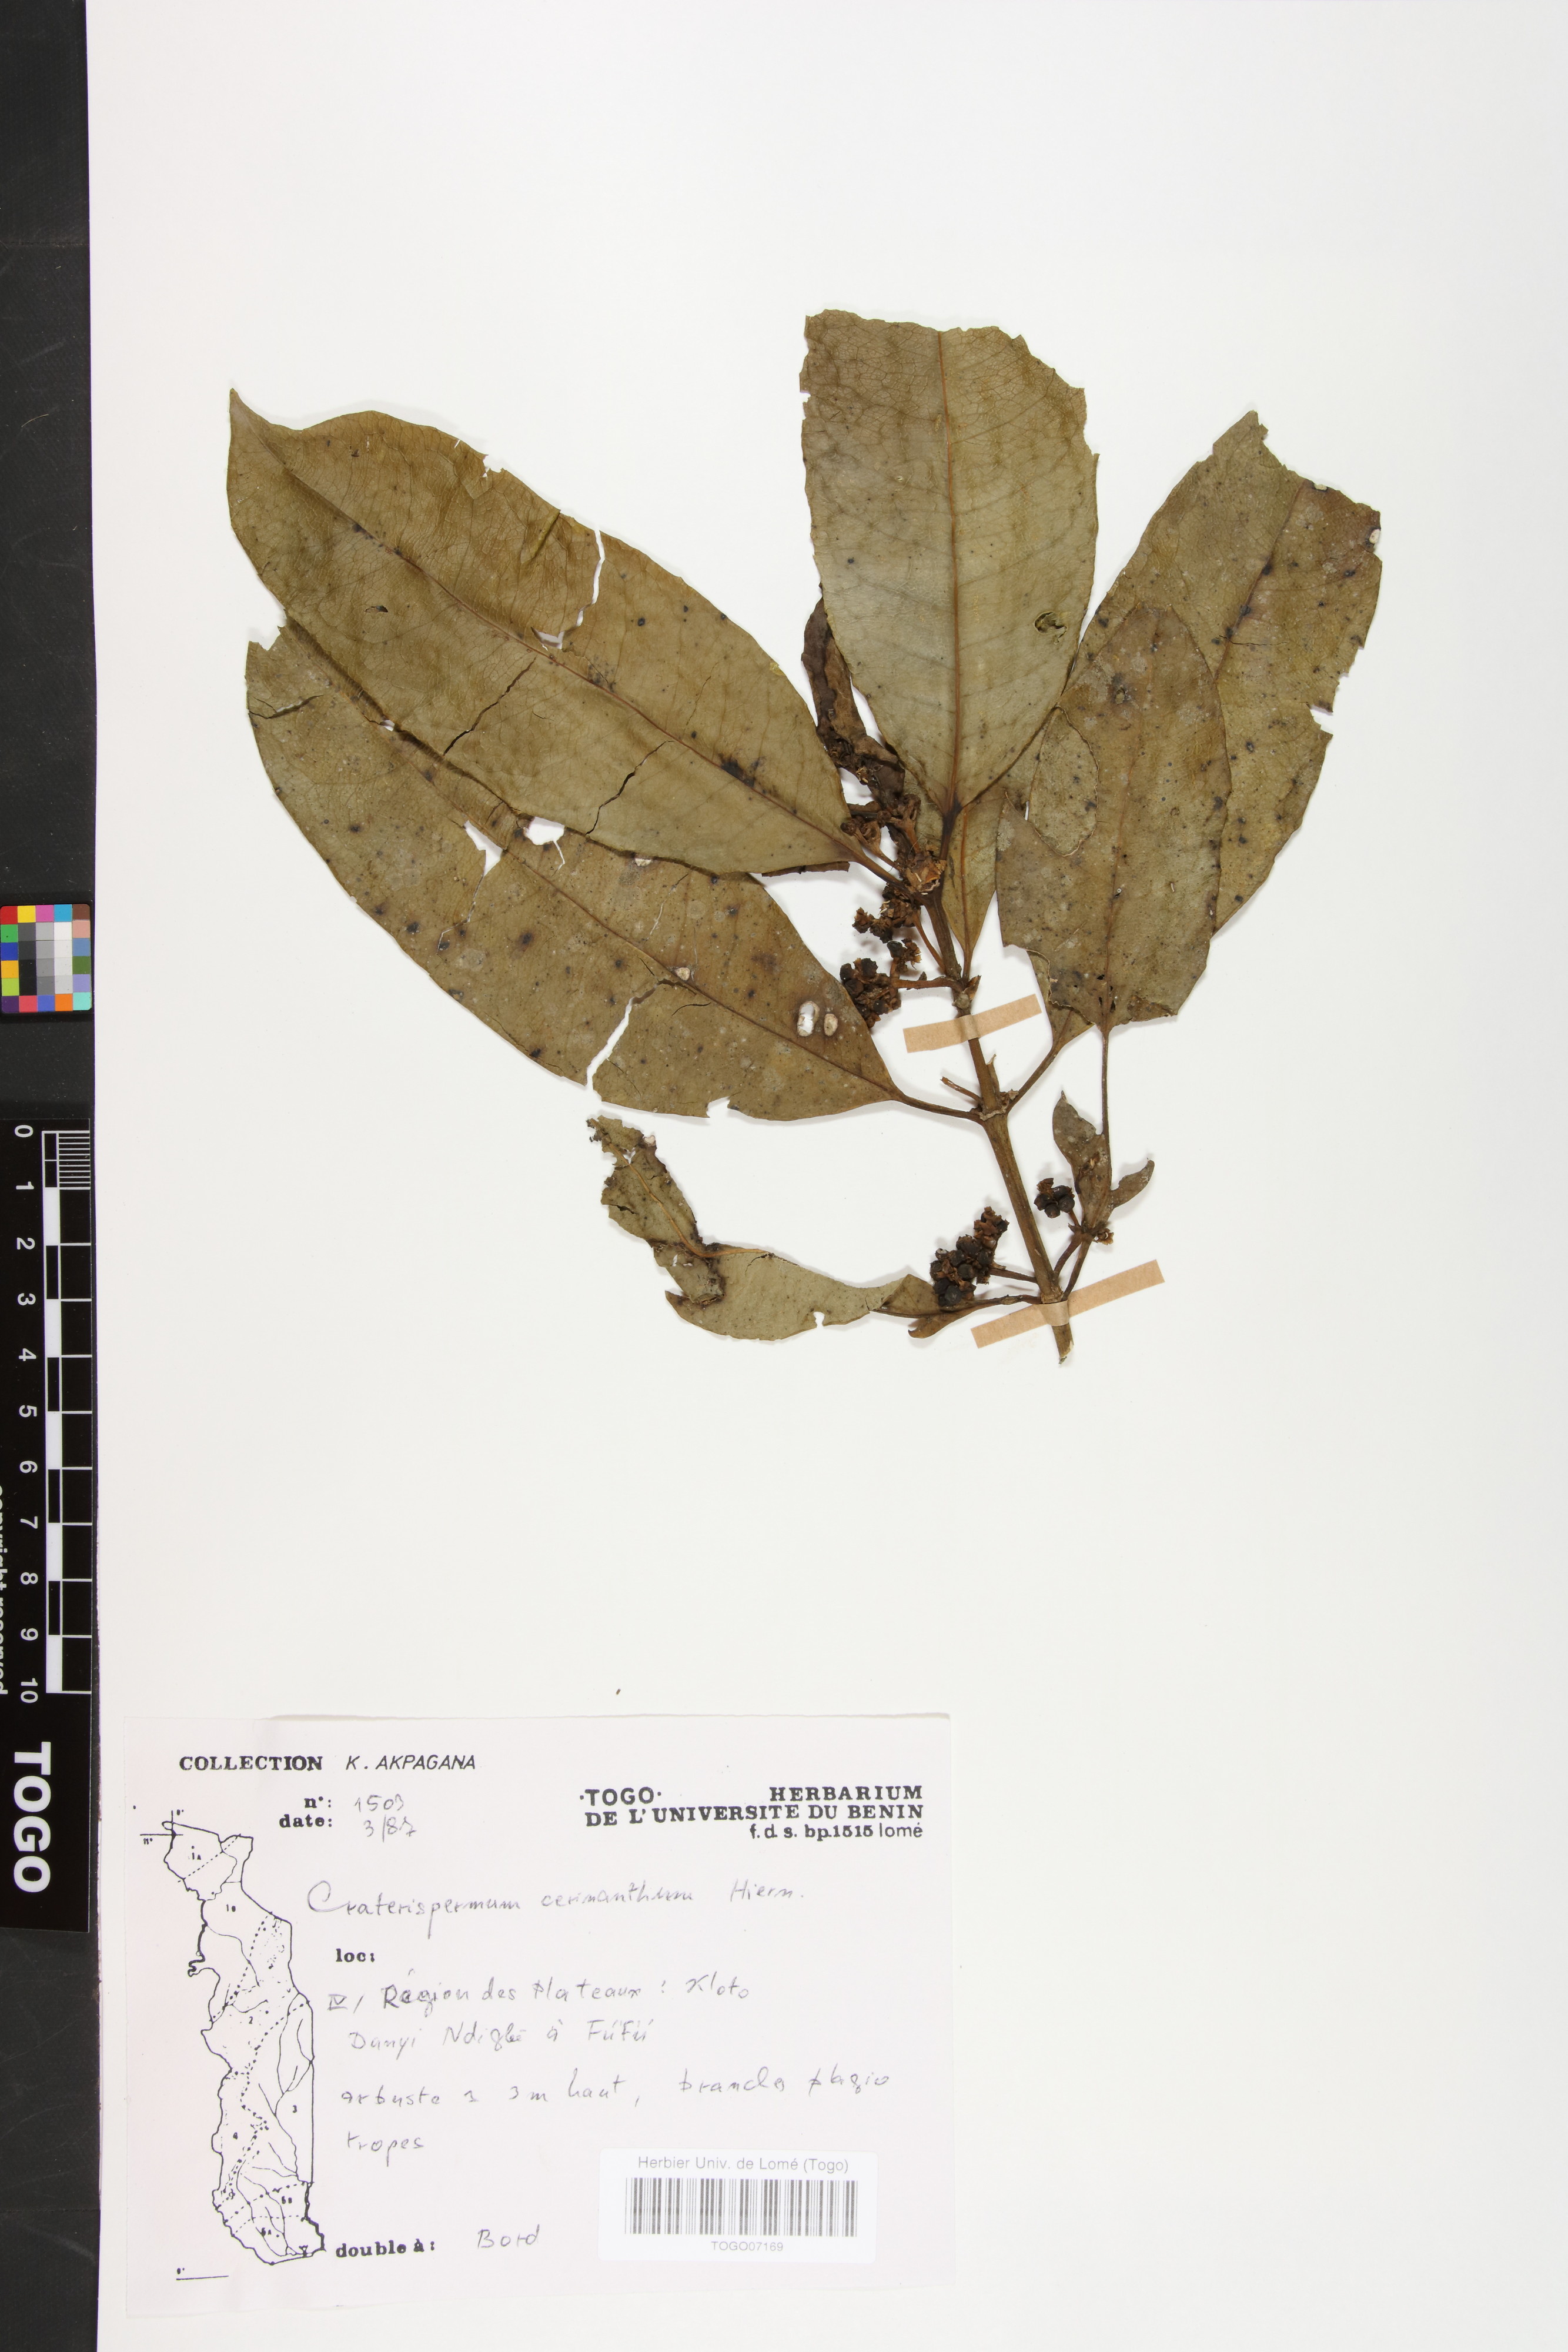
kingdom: Plantae
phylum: Tracheophyta
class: Magnoliopsida
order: Gentianales
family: Rubiaceae
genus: Craterispermum
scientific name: Craterispermum cerinanthum
